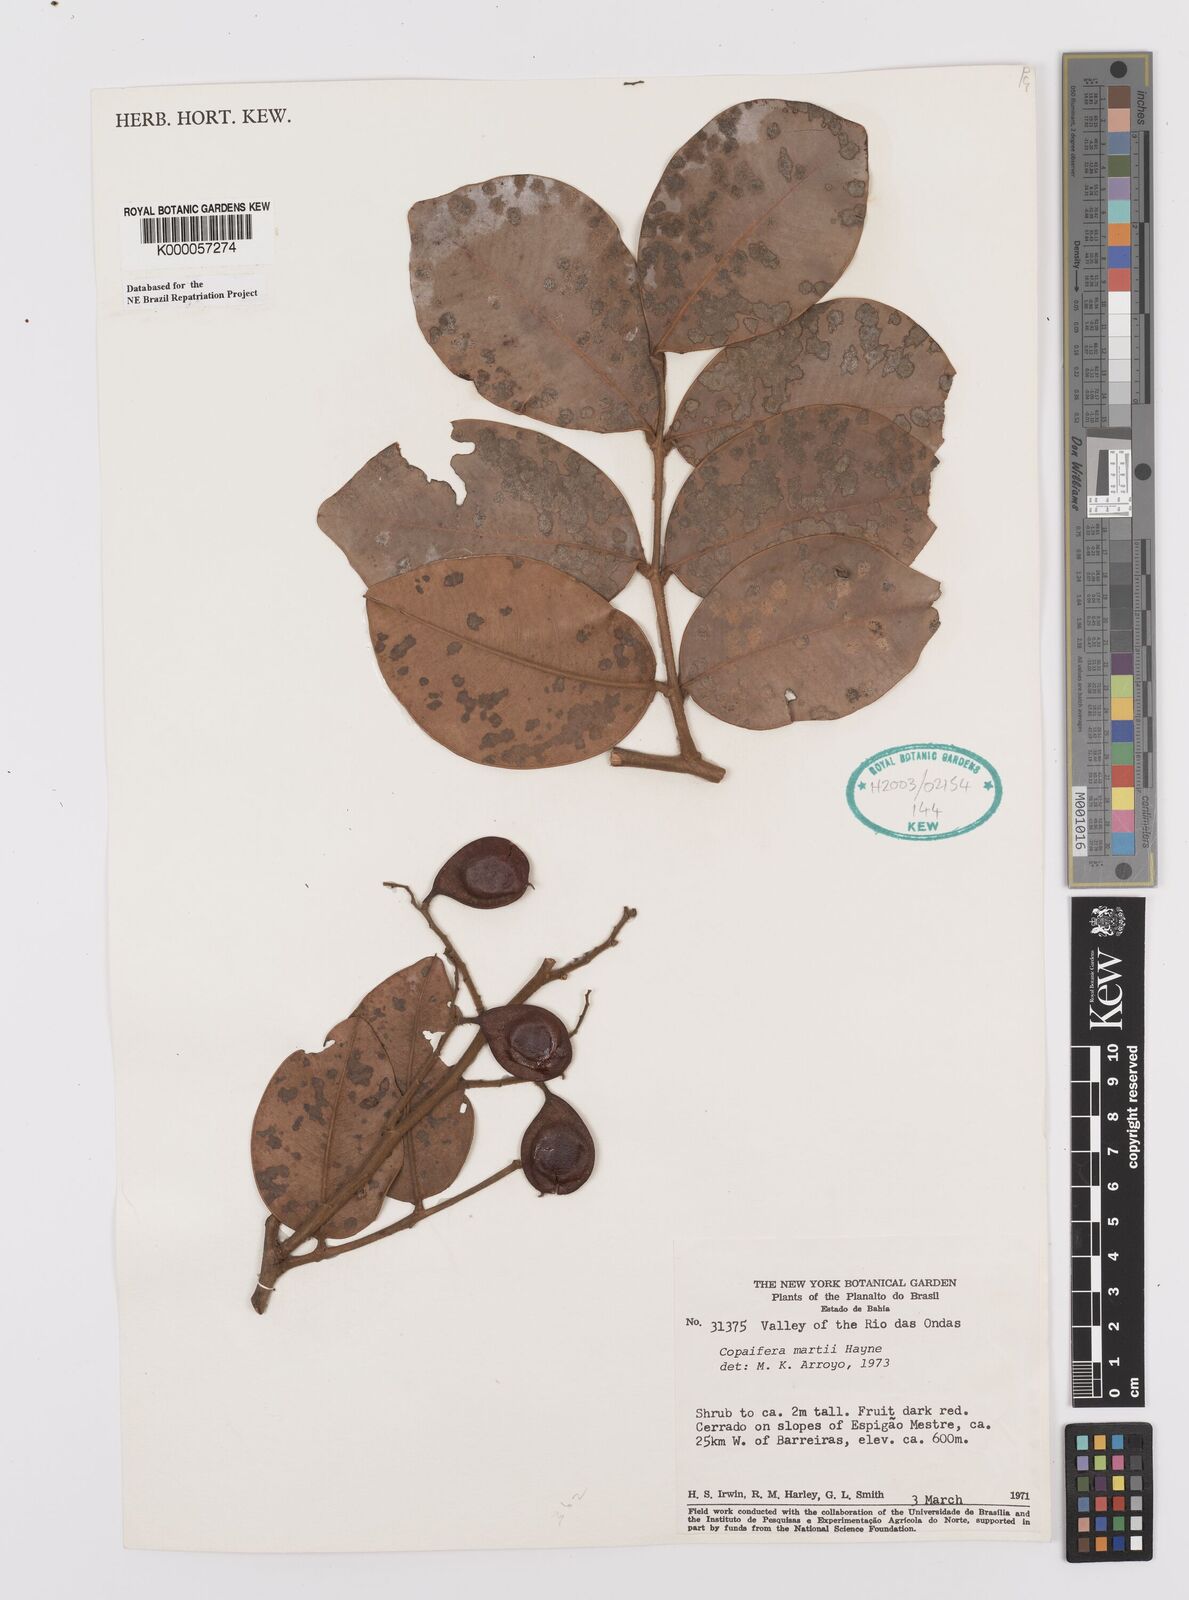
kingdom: Plantae
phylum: Tracheophyta
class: Magnoliopsida
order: Fabales
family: Fabaceae
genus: Copaifera
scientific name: Copaifera martii
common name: Copaiba
